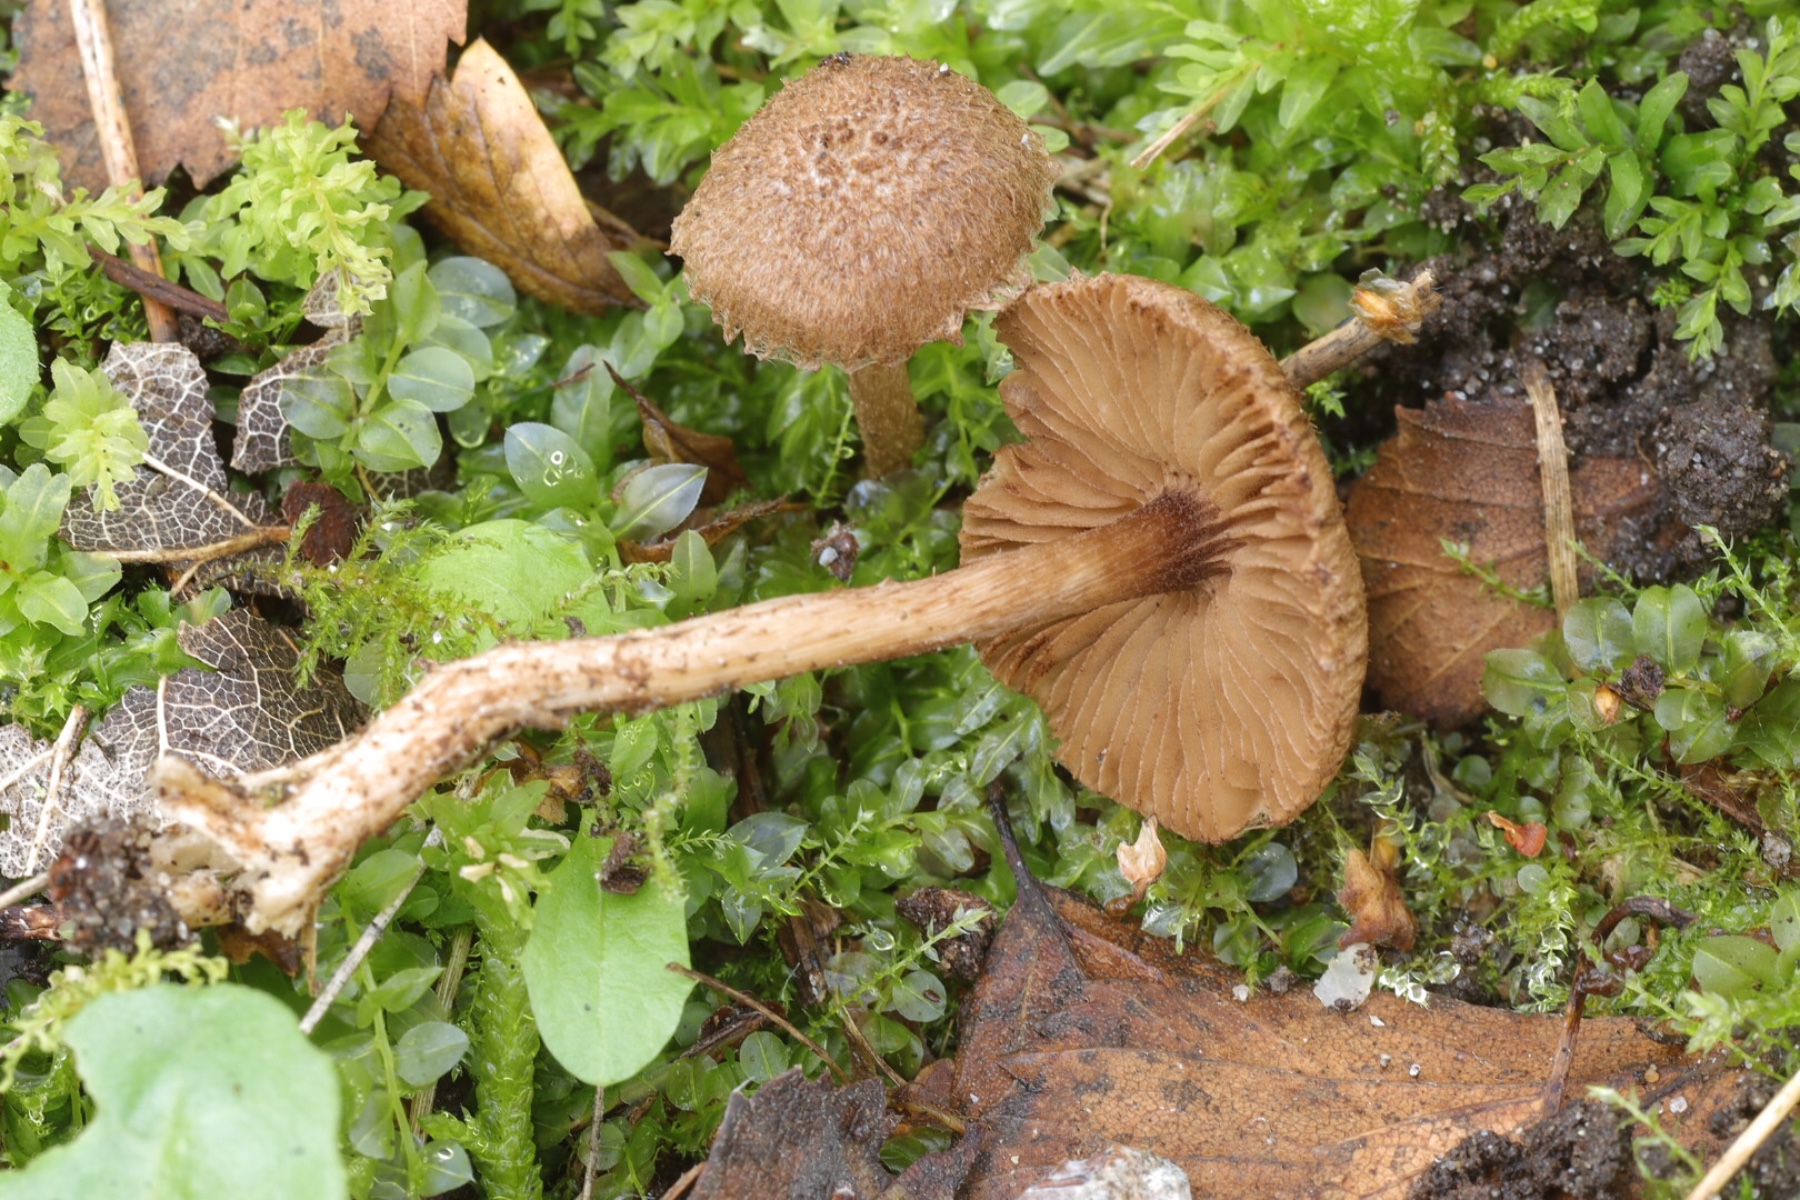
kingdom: Fungi
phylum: Basidiomycota
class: Agaricomycetes
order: Agaricales
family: Inocybaceae
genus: Inocybe
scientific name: Inocybe
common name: trævlhat
